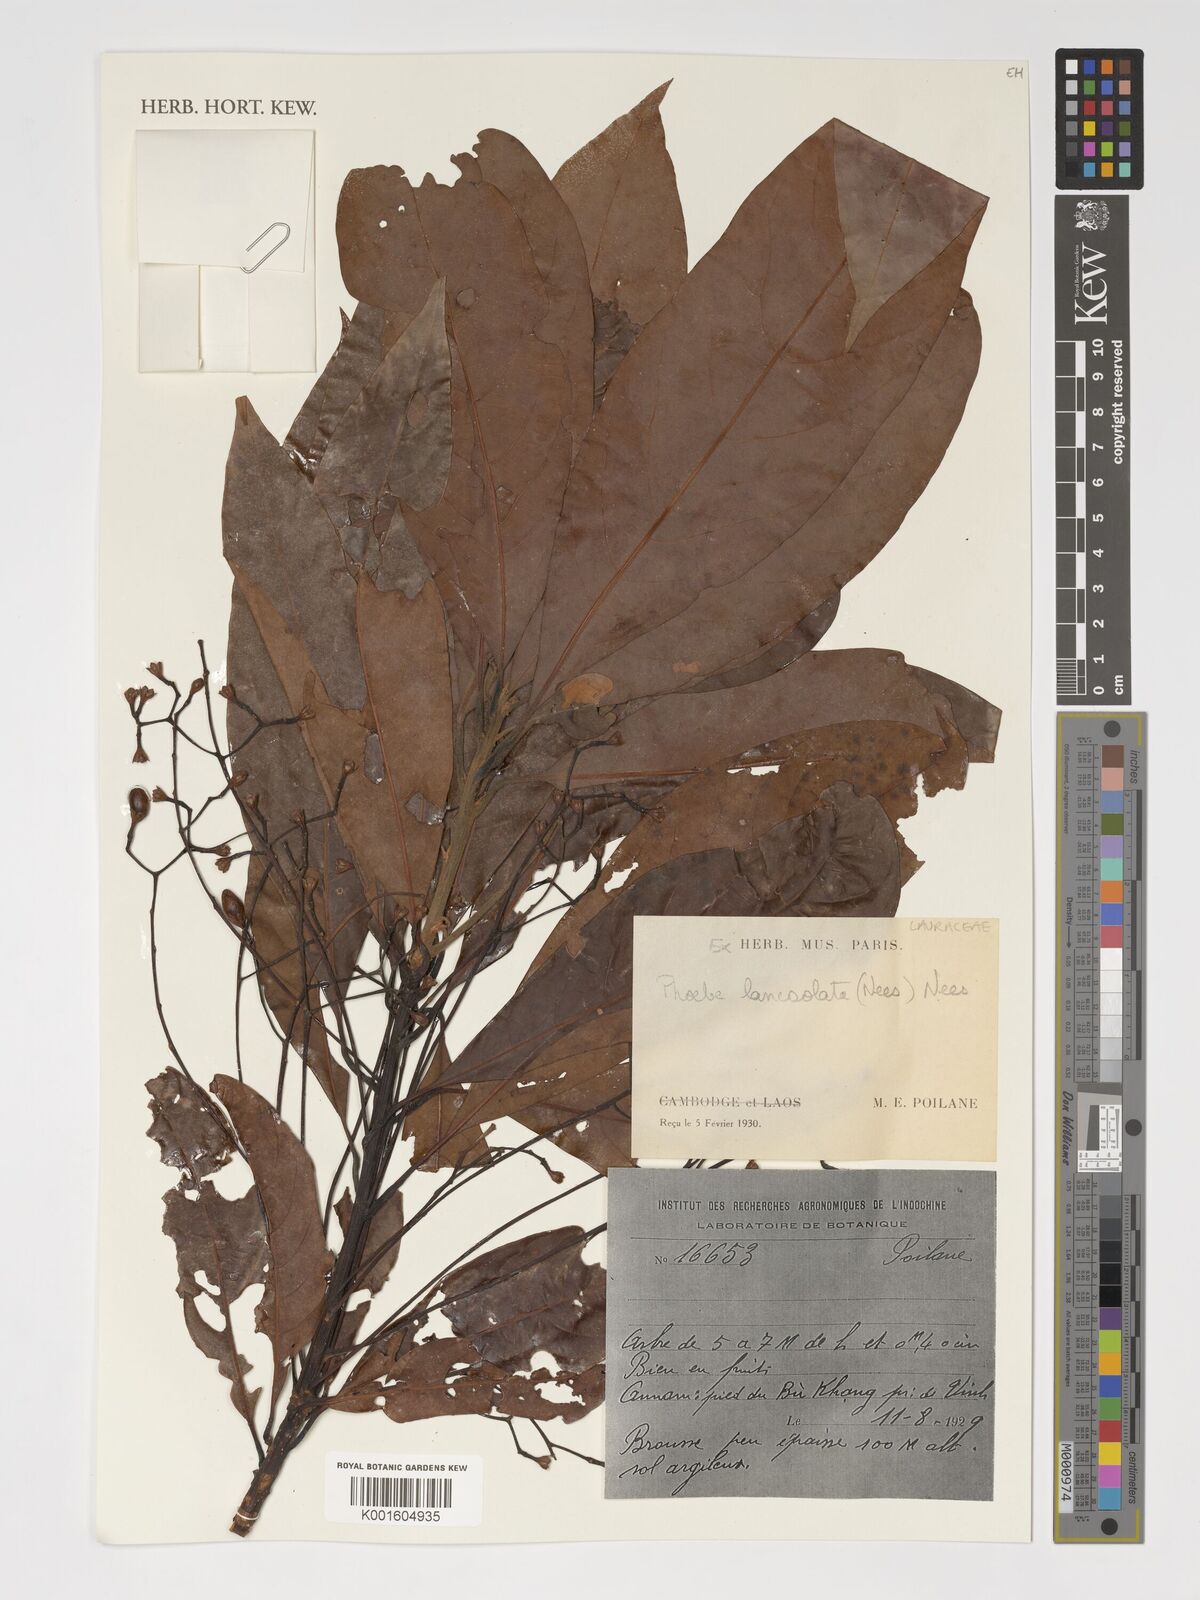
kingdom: Plantae
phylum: Tracheophyta
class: Magnoliopsida
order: Laurales
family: Lauraceae
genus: Phoebe
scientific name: Phoebe lanceolata
